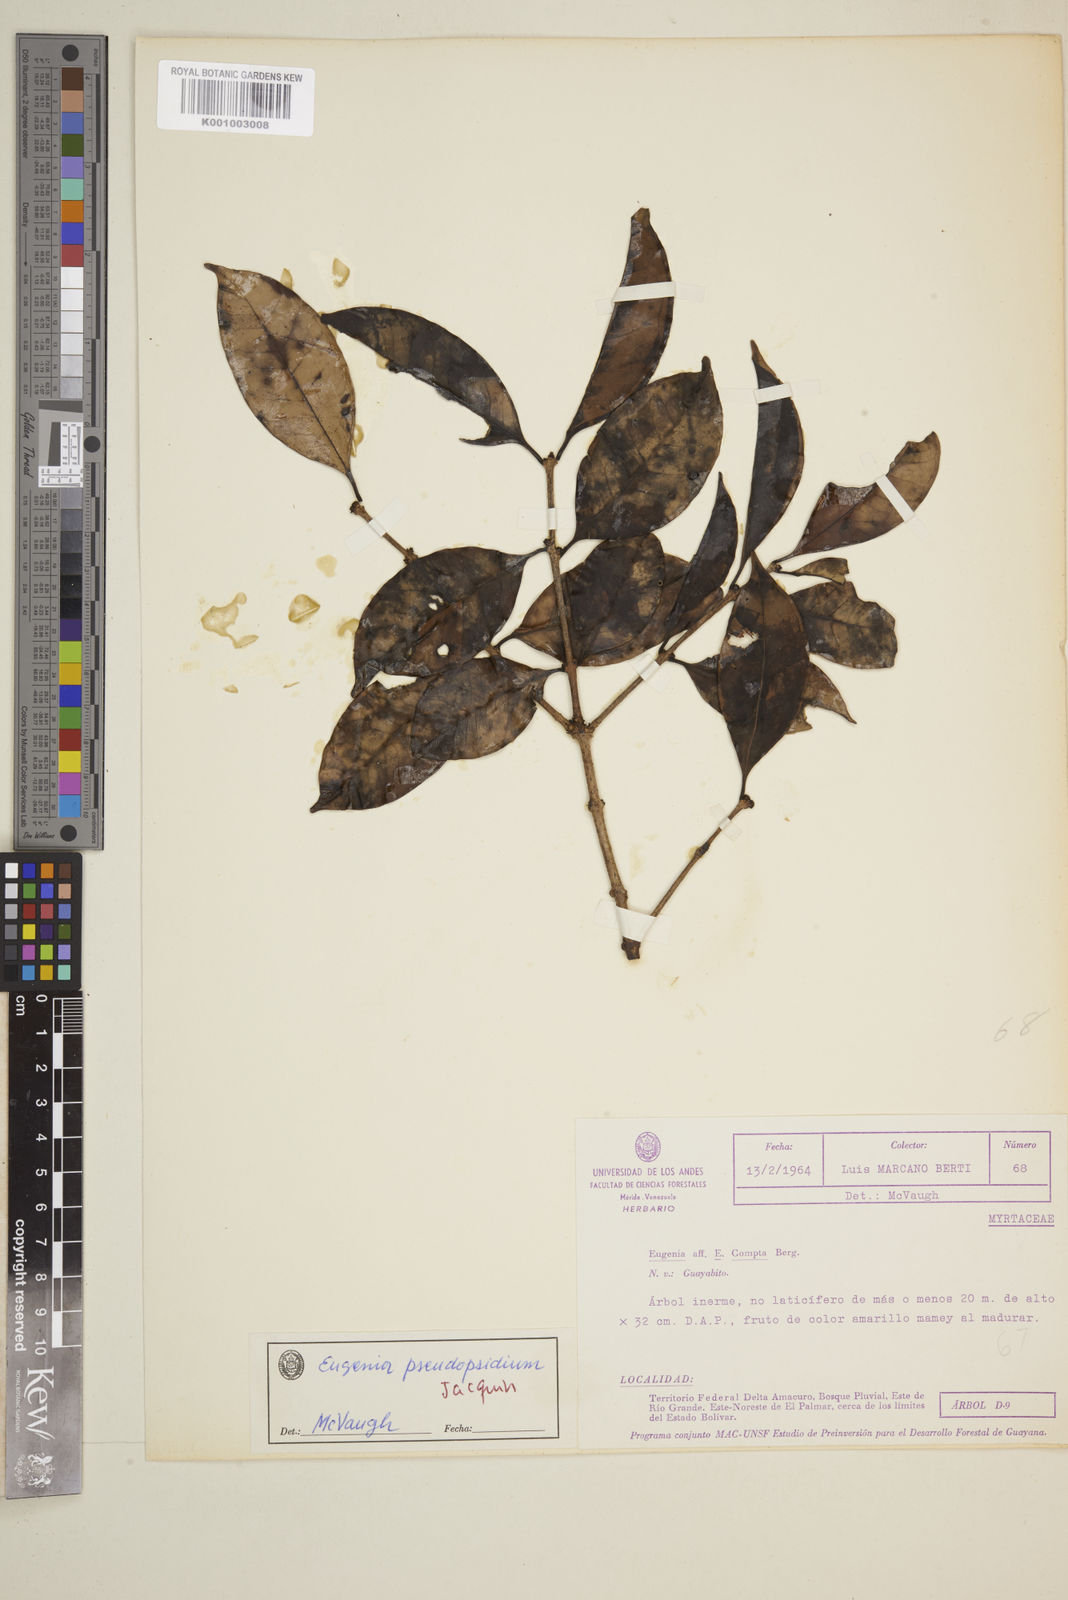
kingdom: Plantae
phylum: Tracheophyta
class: Magnoliopsida
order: Myrtales
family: Myrtaceae
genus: Eugenia
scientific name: Eugenia pseudopsidium
